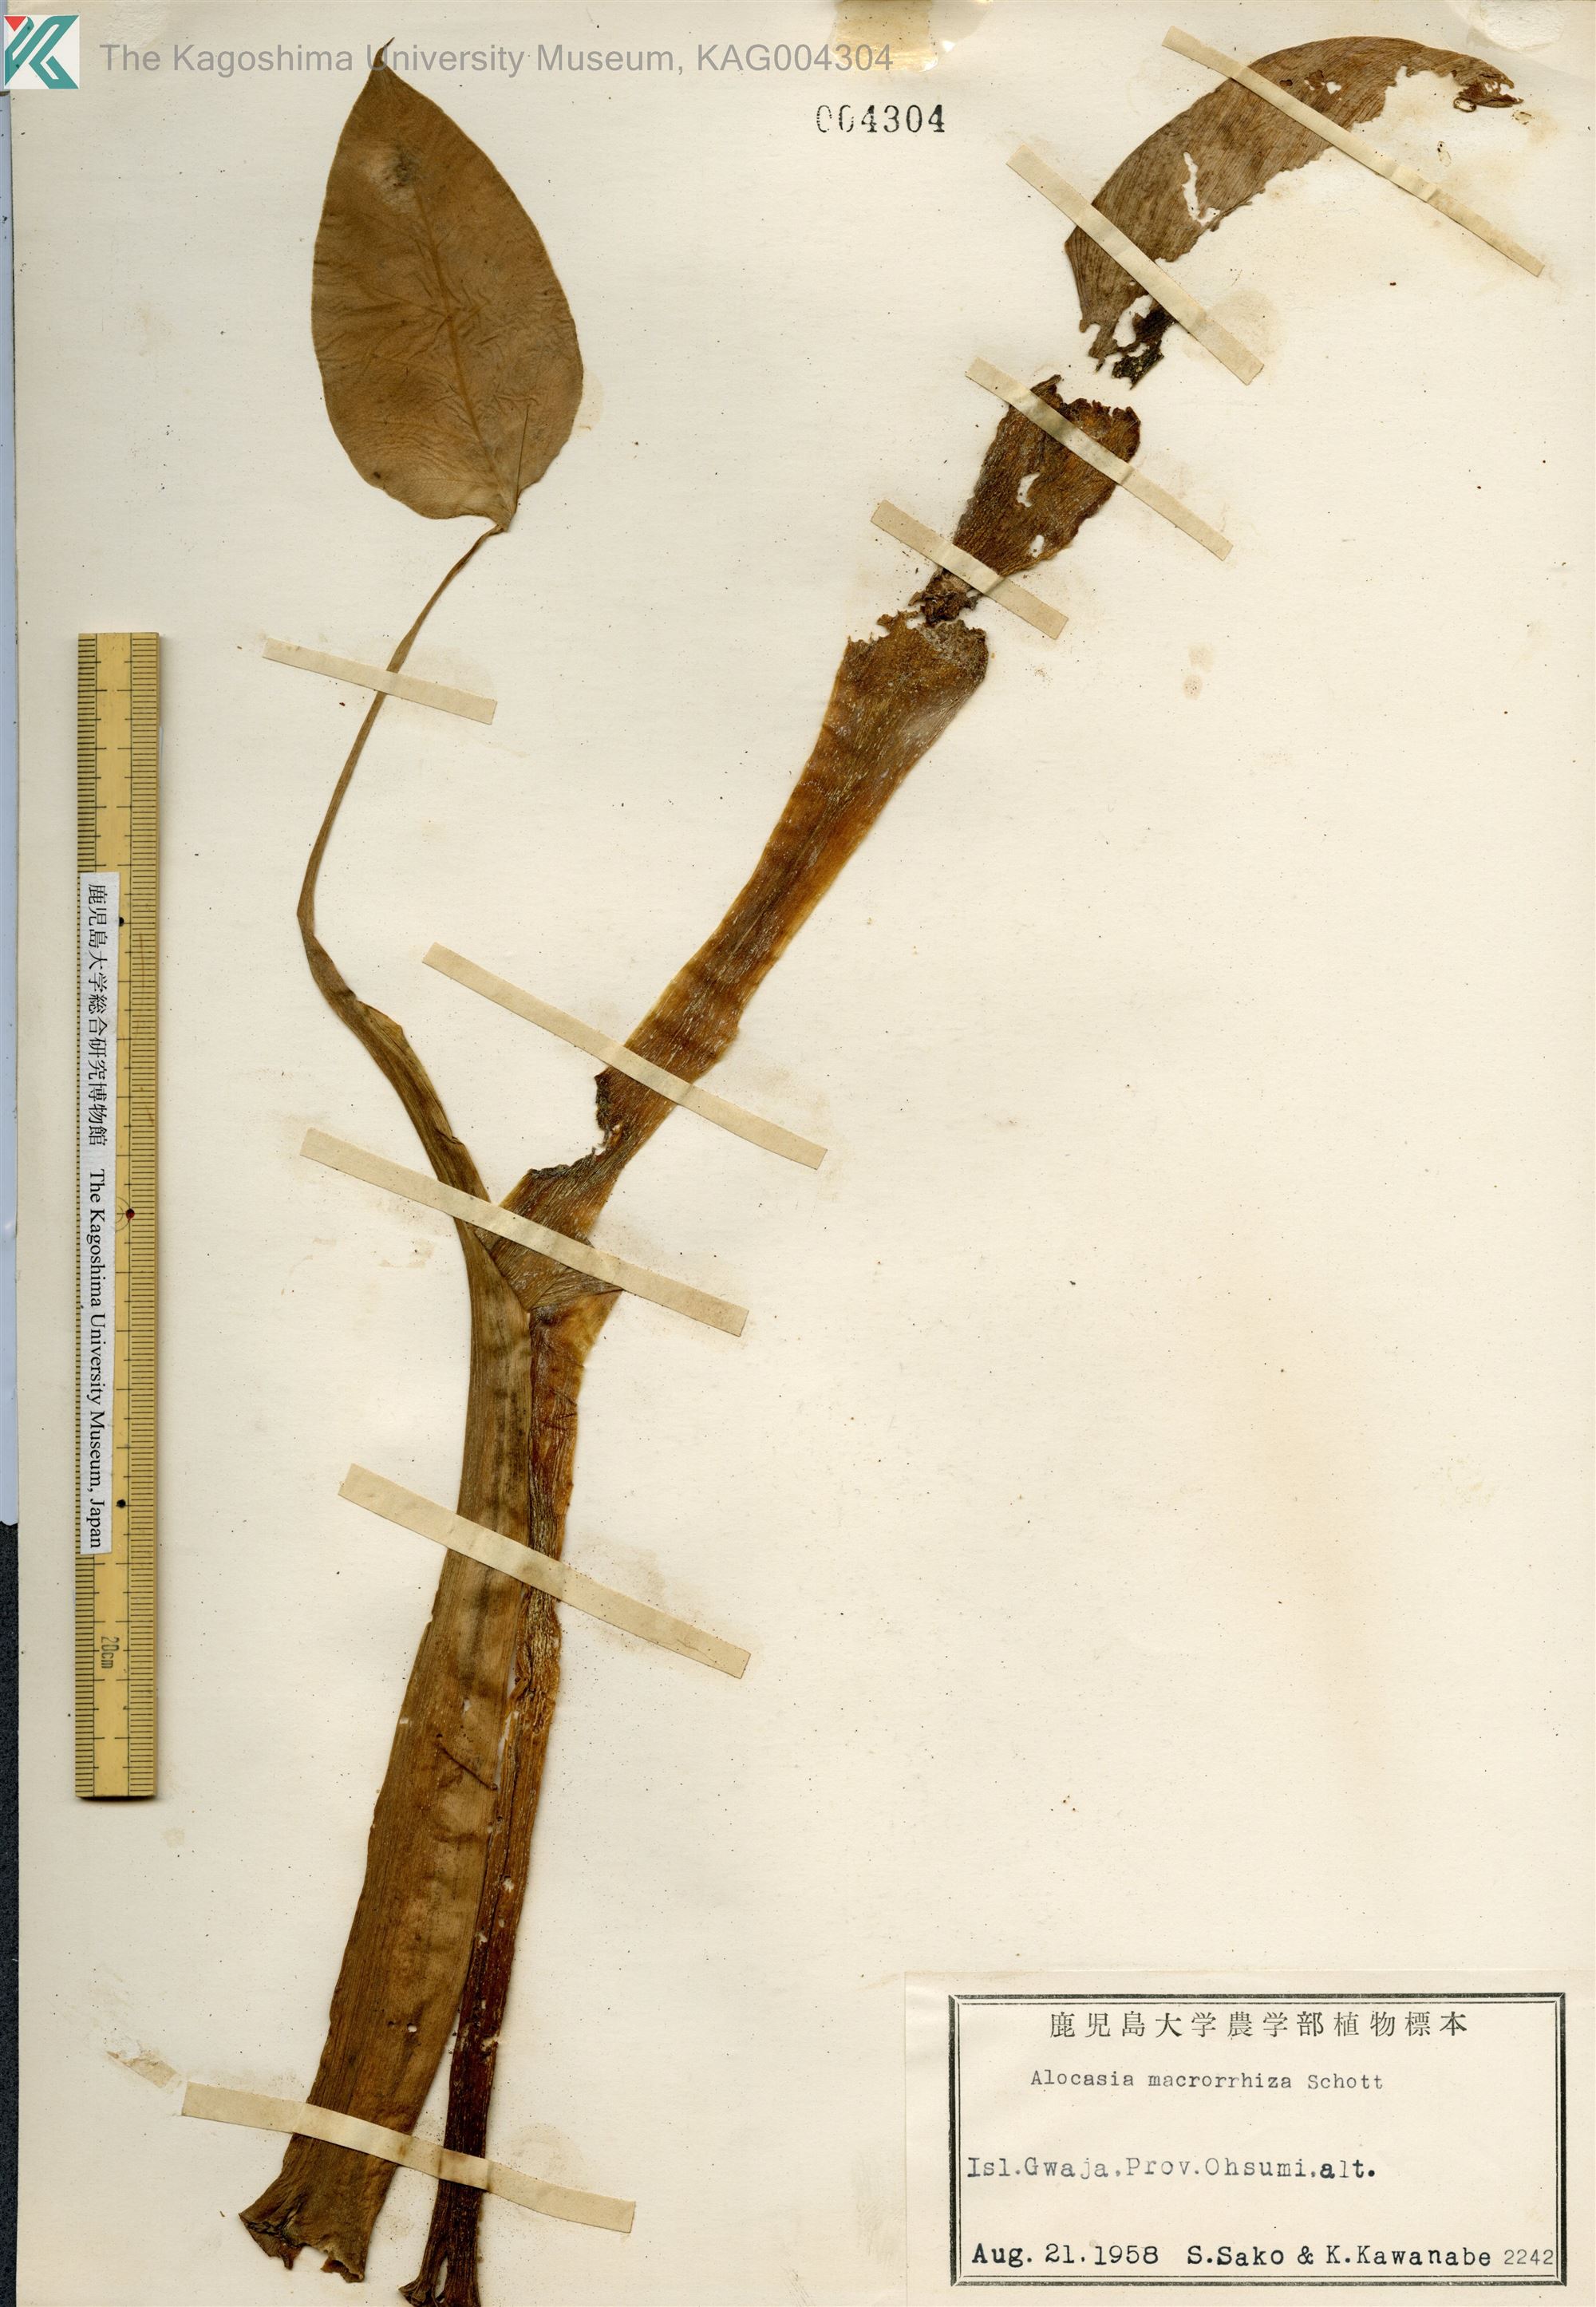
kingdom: Plantae
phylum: Tracheophyta
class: Liliopsida
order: Alismatales
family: Araceae
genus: Alocasia
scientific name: Alocasia odora
